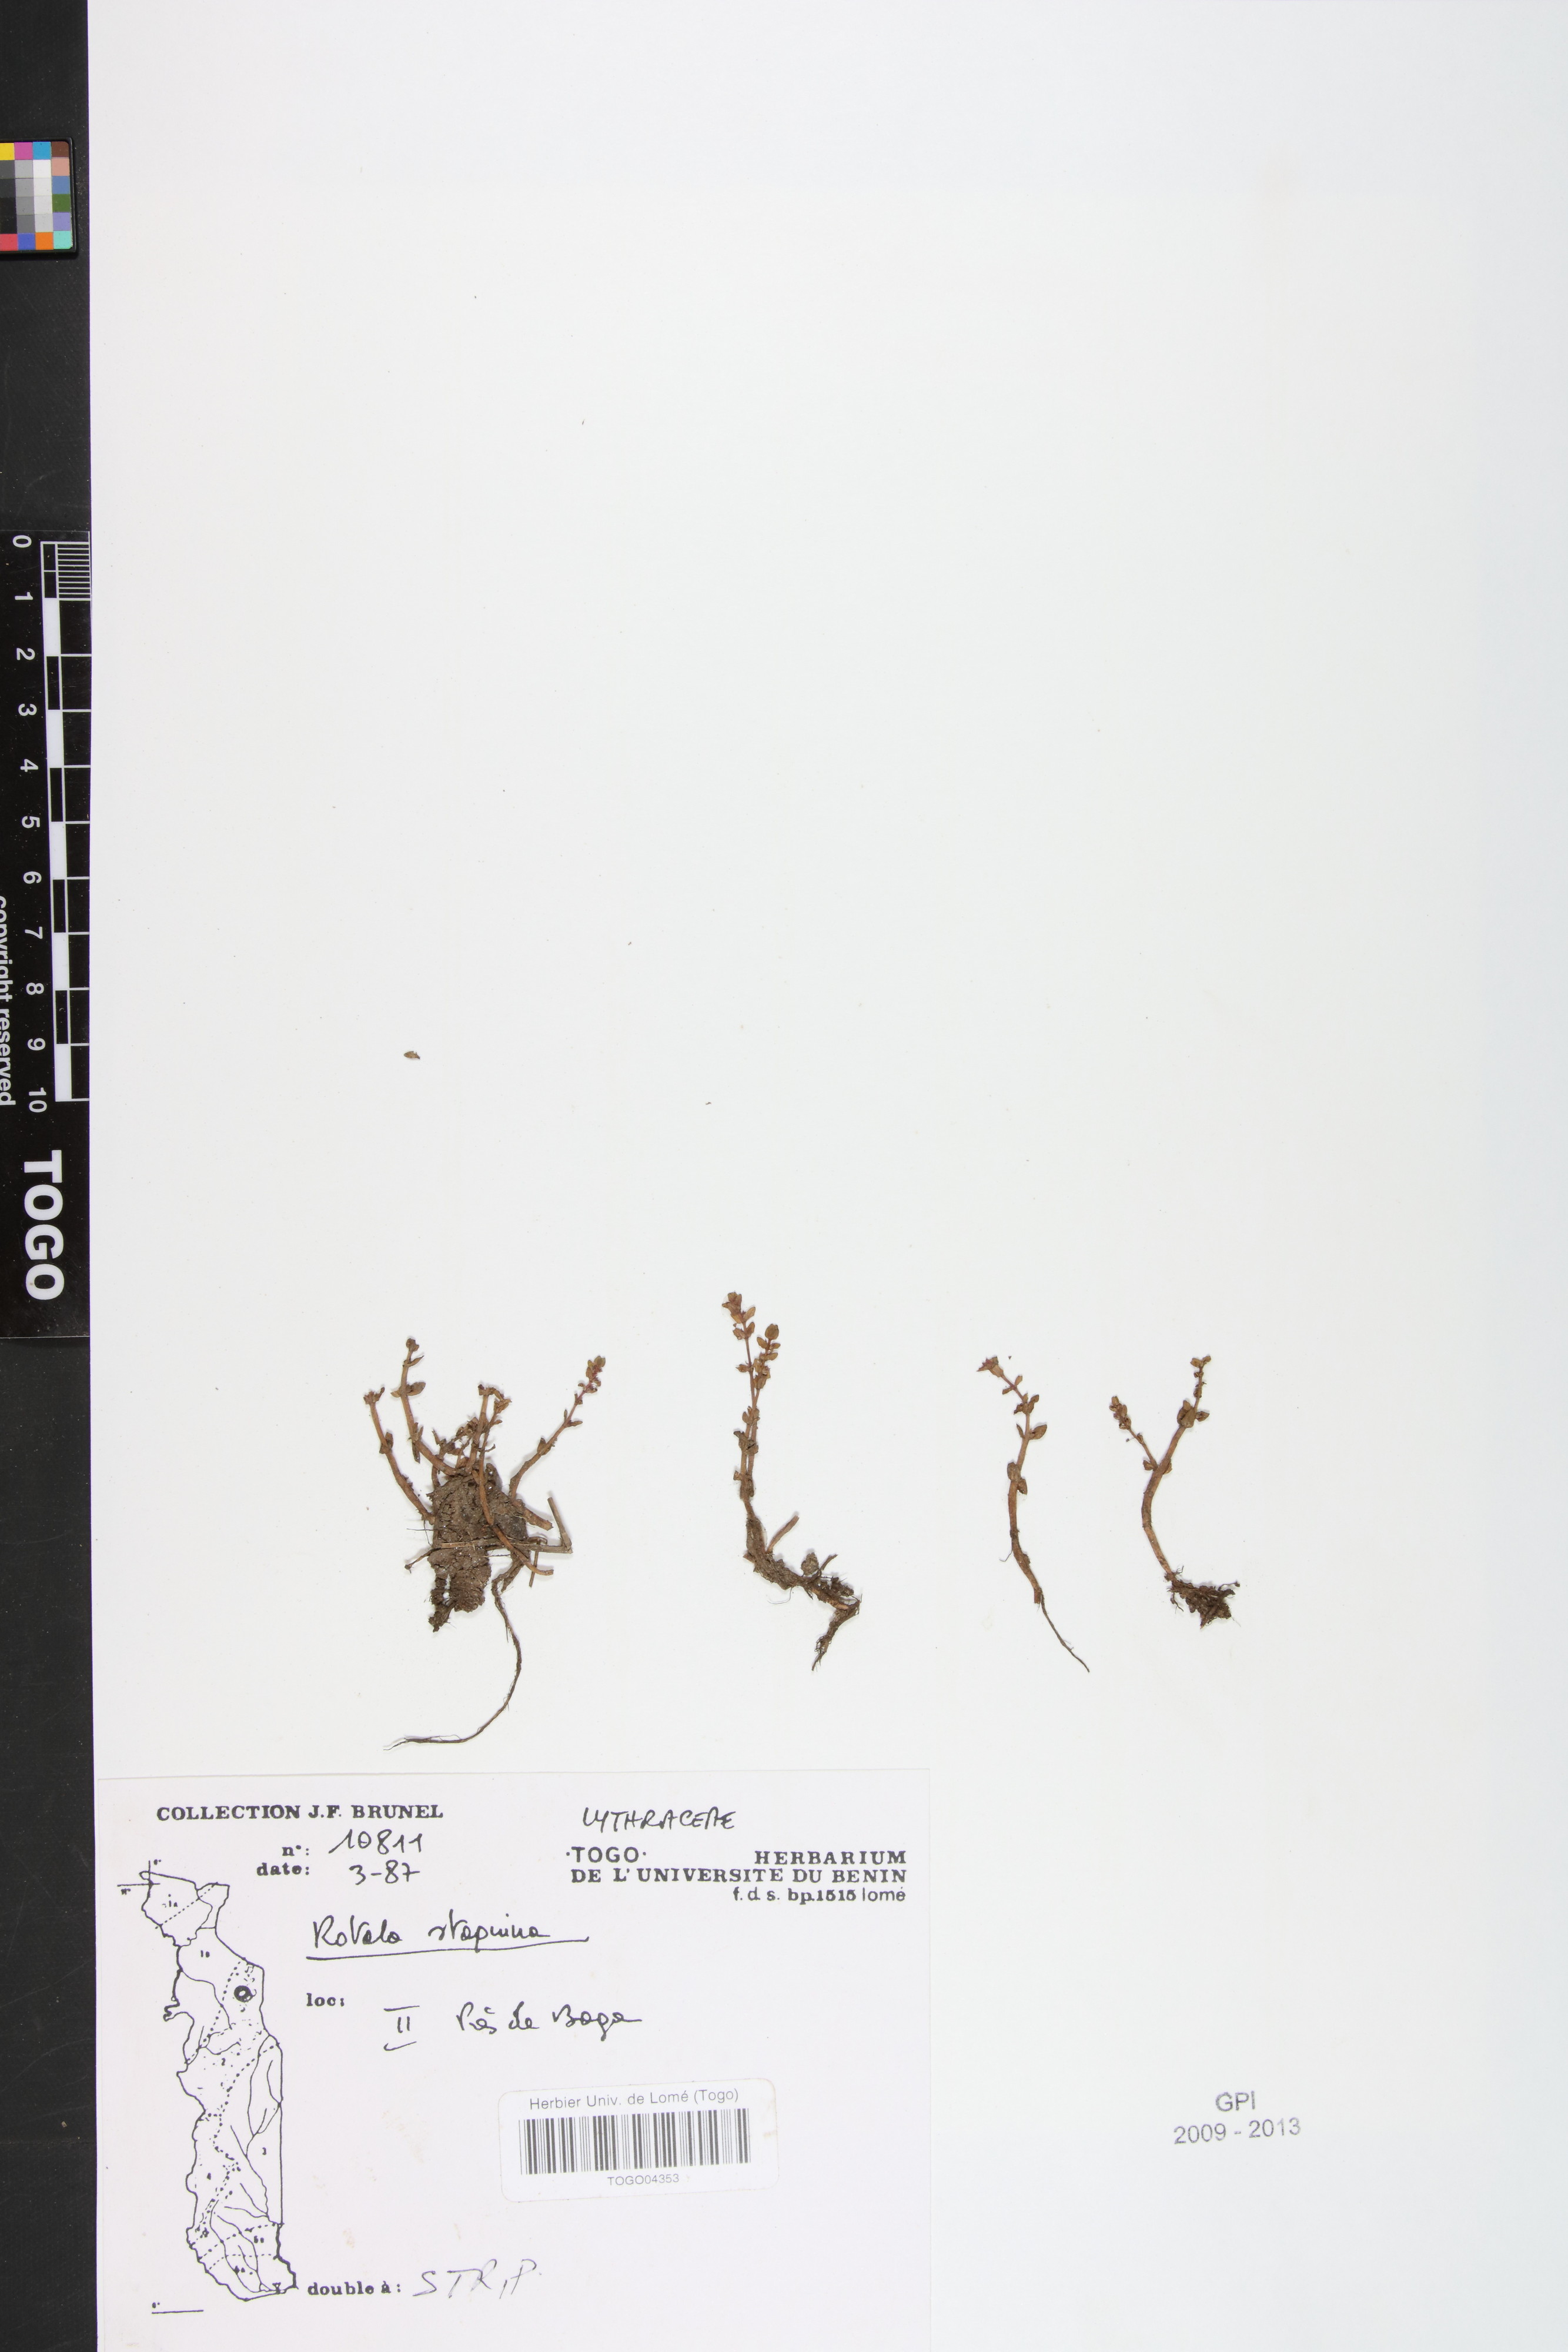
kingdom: Plantae
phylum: Tracheophyta
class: Magnoliopsida
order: Myrtales
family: Lythraceae
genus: Rotala
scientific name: Rotala stagnina
